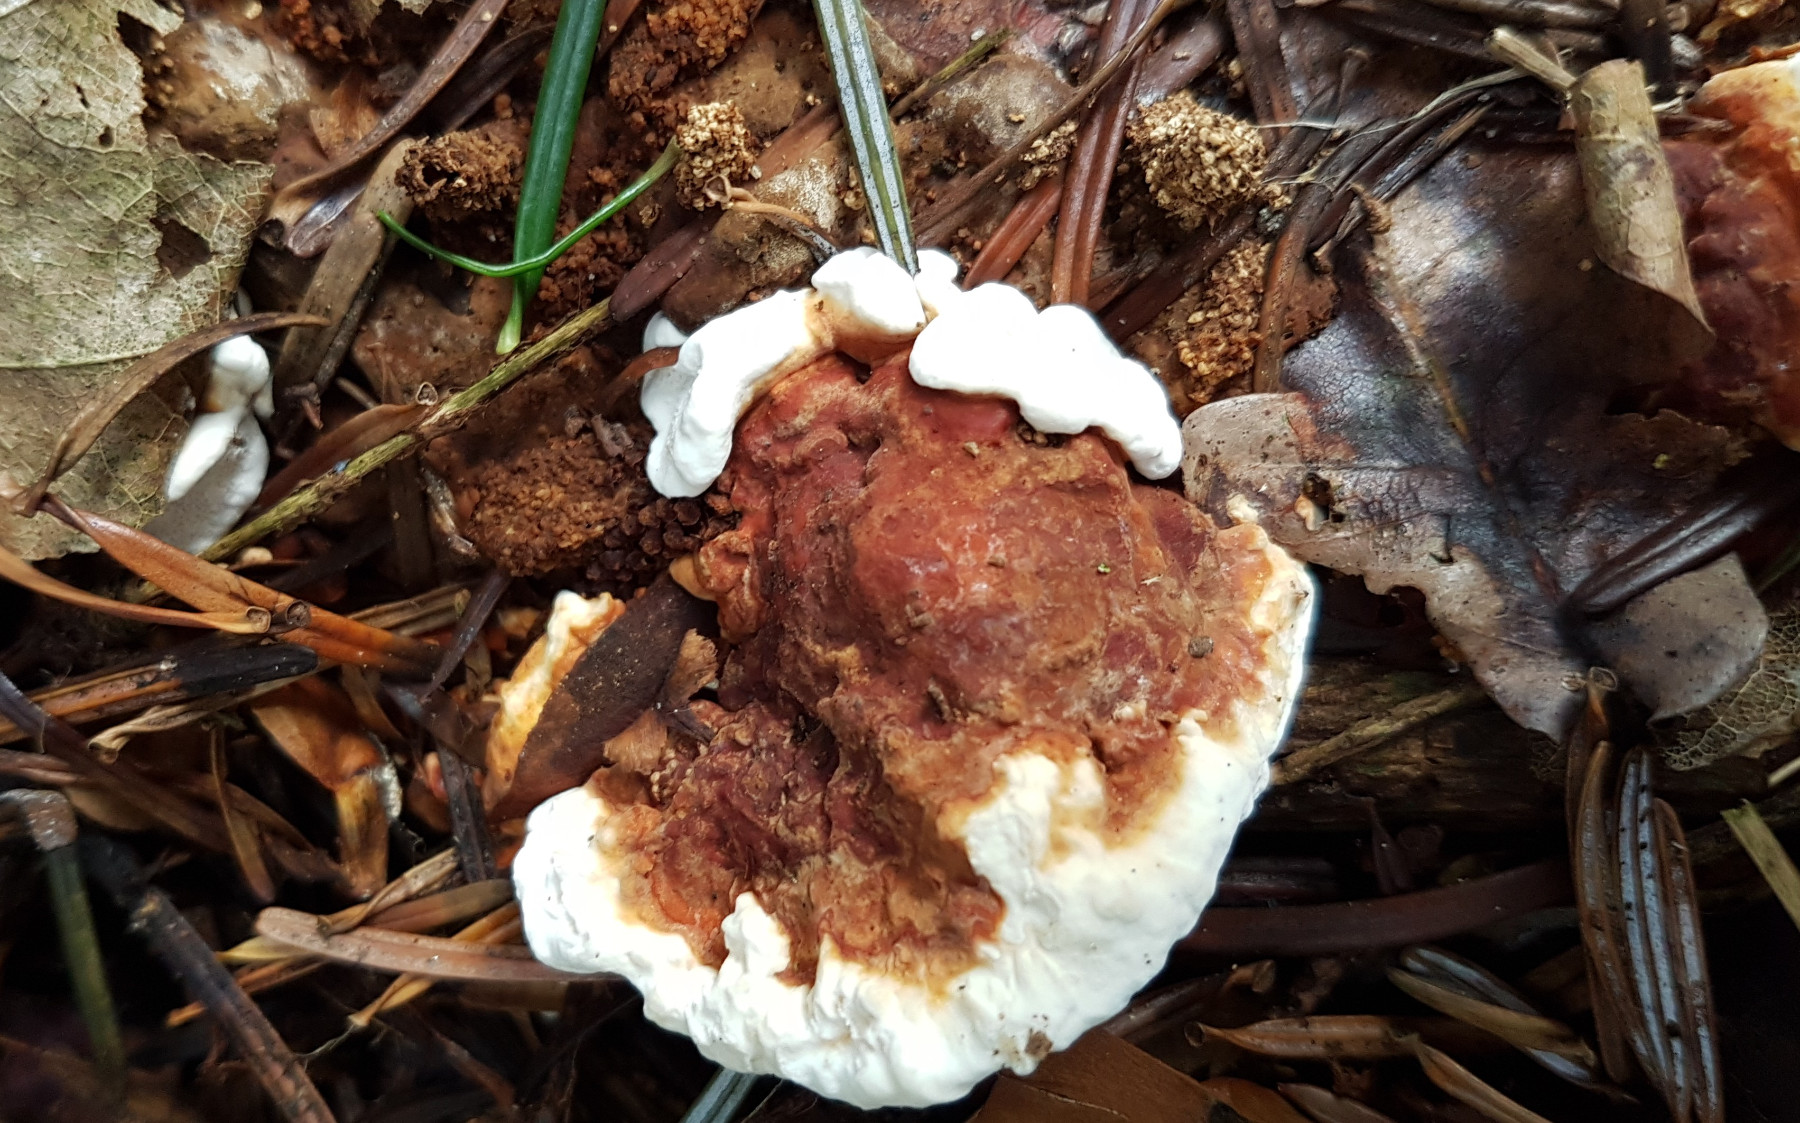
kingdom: Fungi
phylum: Basidiomycota
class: Agaricomycetes
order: Russulales
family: Bondarzewiaceae
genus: Heterobasidion
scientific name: Heterobasidion
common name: rodfordærver
